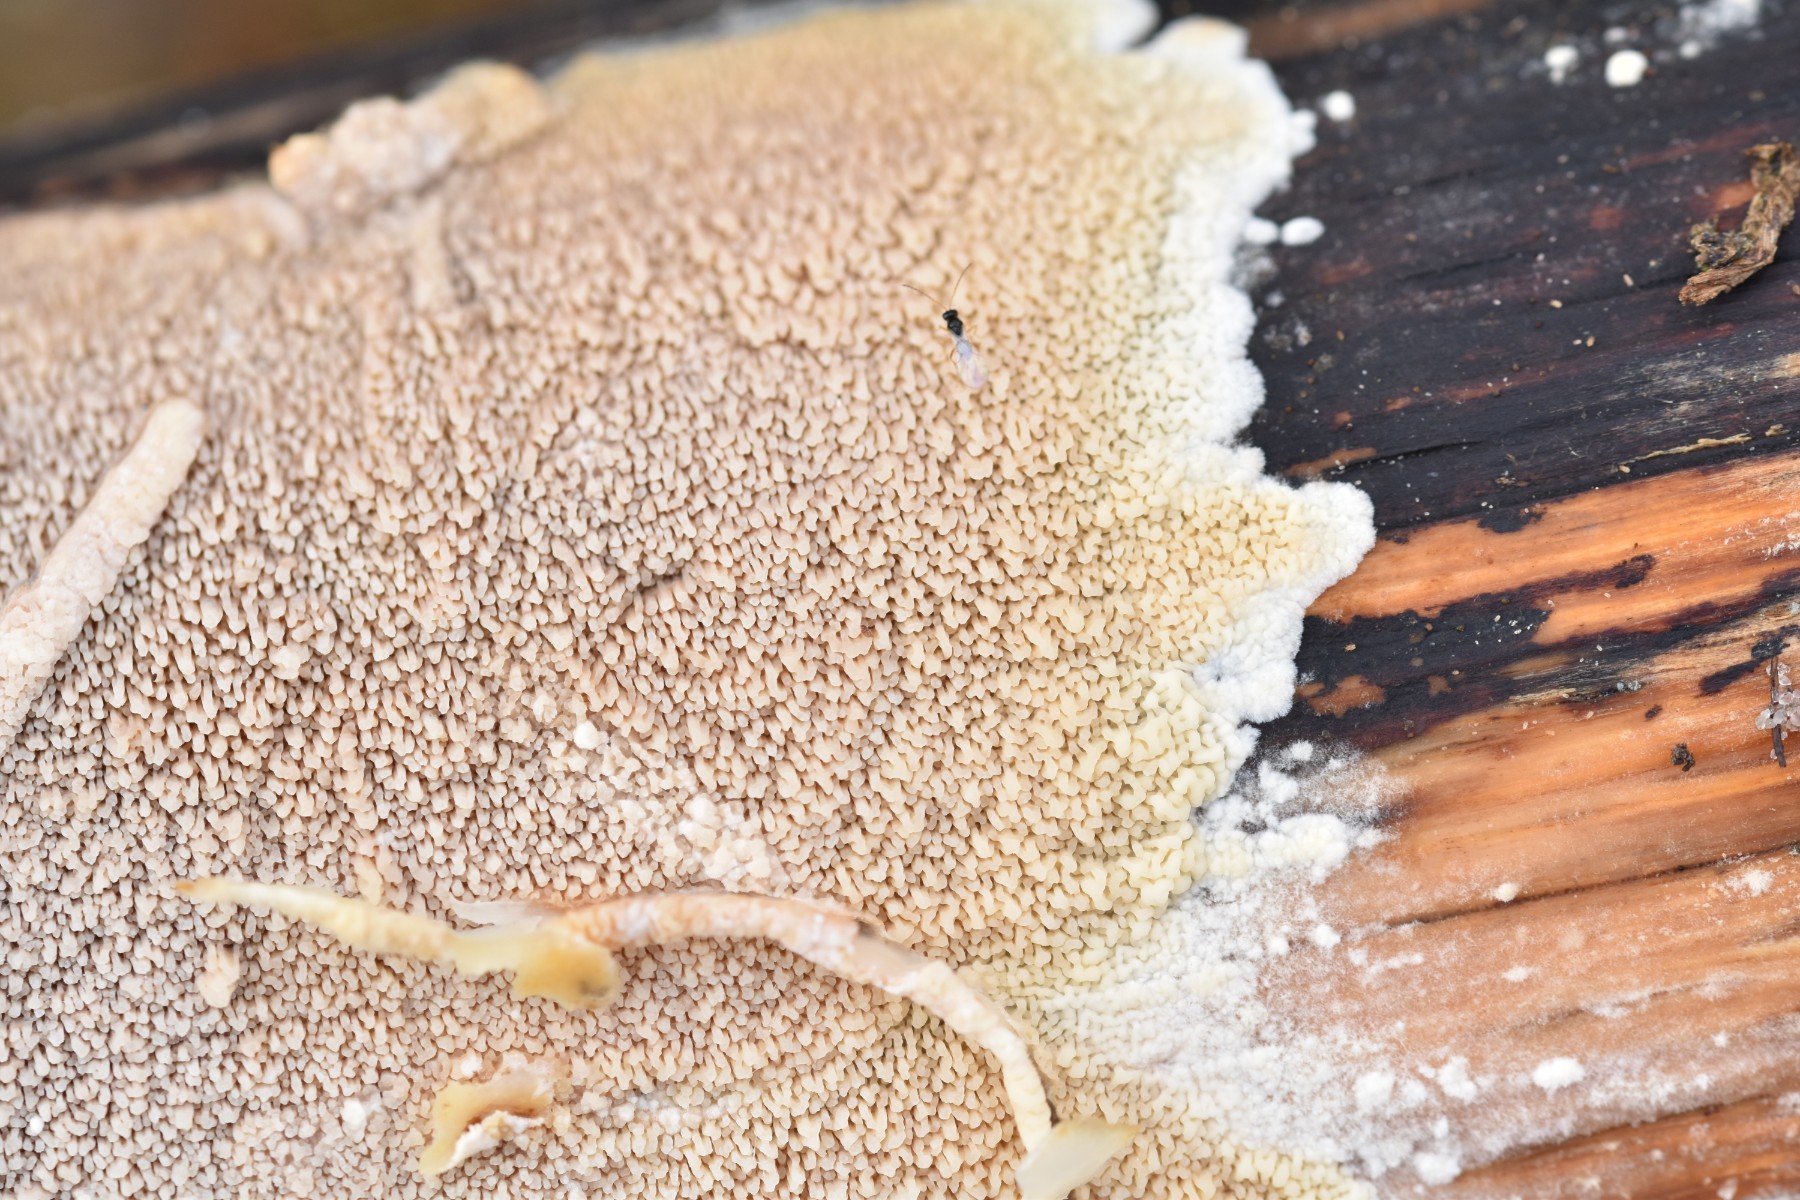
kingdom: Fungi
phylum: Basidiomycota
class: Agaricomycetes
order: Polyporales
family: Irpicaceae
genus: Crystallicutis
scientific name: Crystallicutis serpens
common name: gråviolet barkhinde
